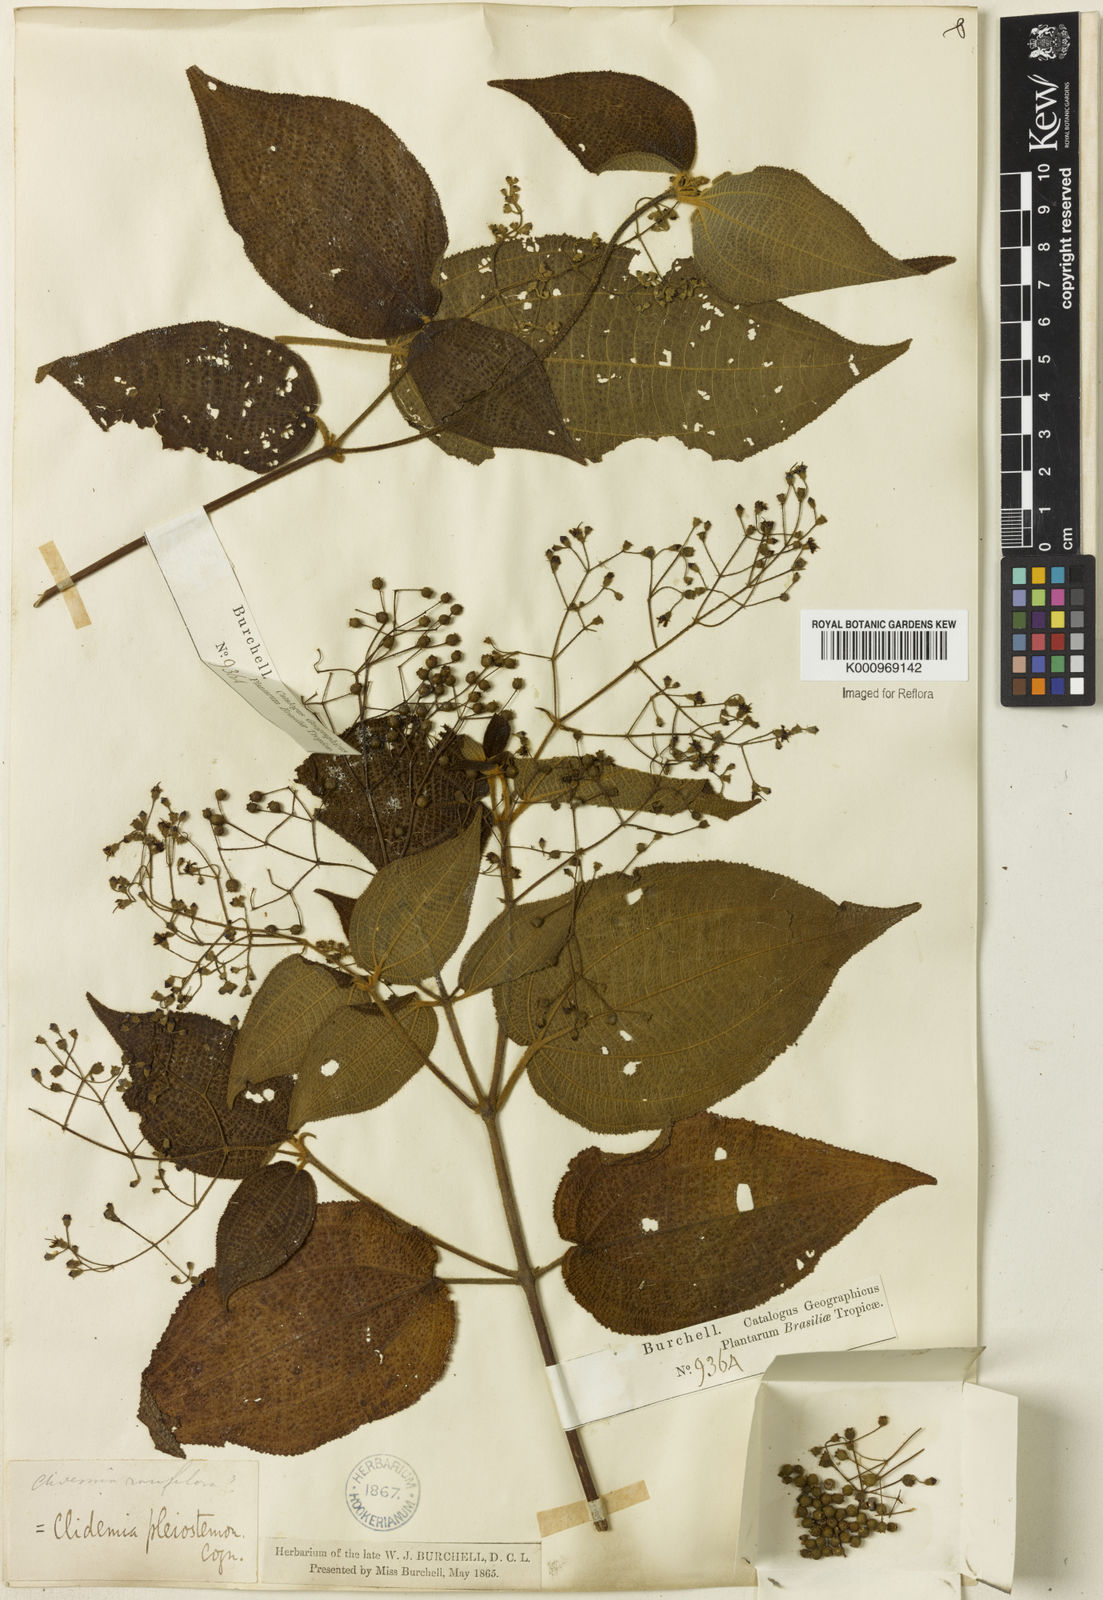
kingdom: Plantae
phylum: Tracheophyta
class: Magnoliopsida
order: Myrtales
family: Melastomataceae
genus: Miconia
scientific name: Miconia biserrata
